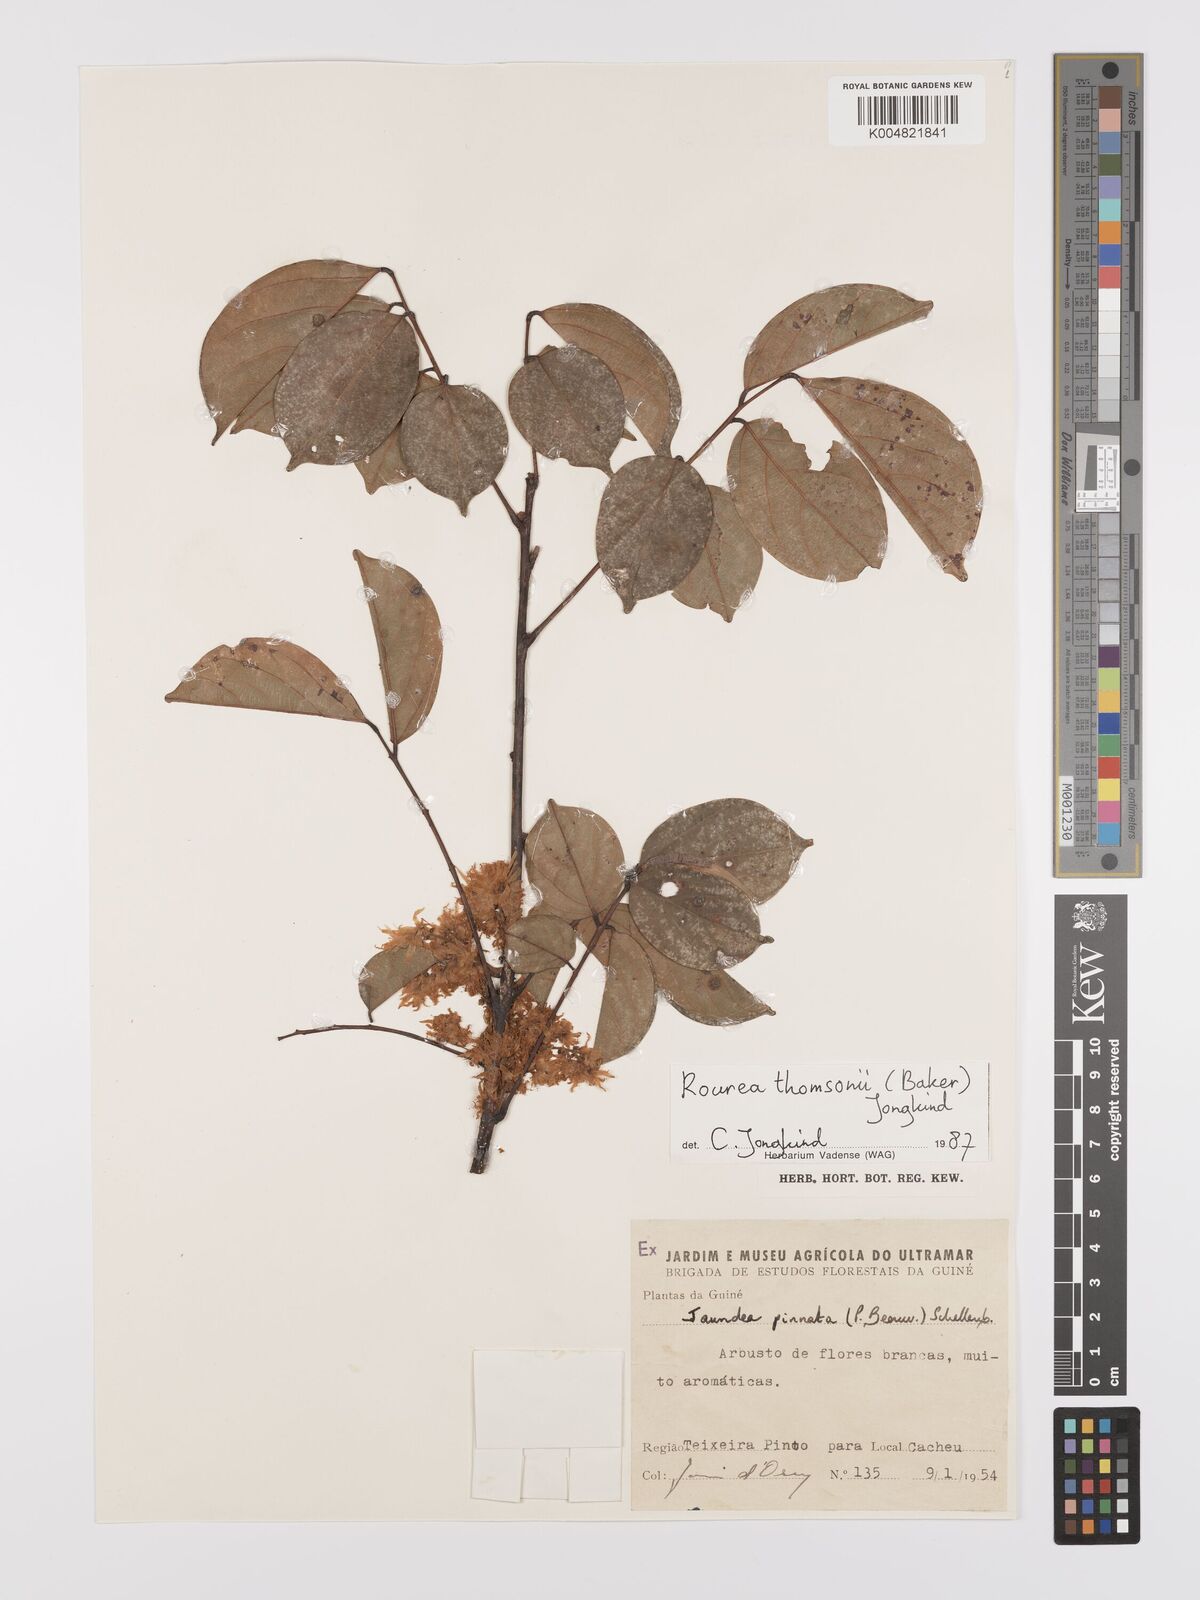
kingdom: Plantae
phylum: Tracheophyta
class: Magnoliopsida
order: Oxalidales
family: Connaraceae
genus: Rourea
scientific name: Rourea pinnata
